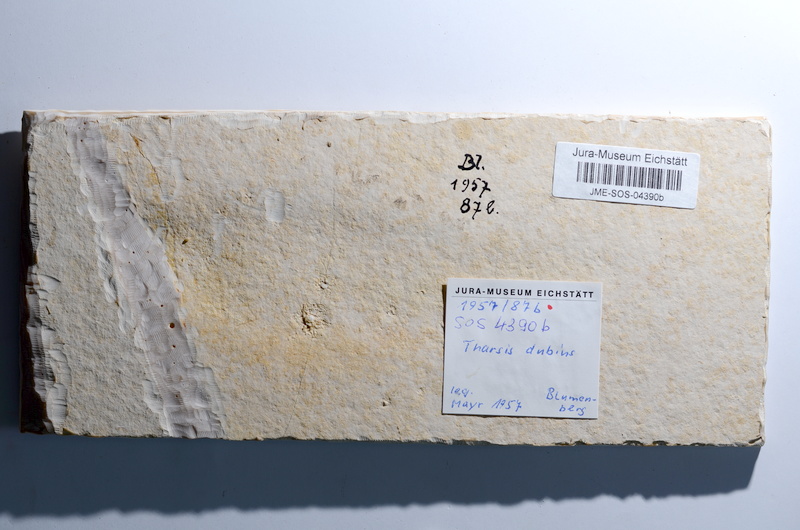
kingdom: Animalia
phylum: Chordata
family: Ascalaboidae
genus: Tharsis
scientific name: Tharsis dubius
